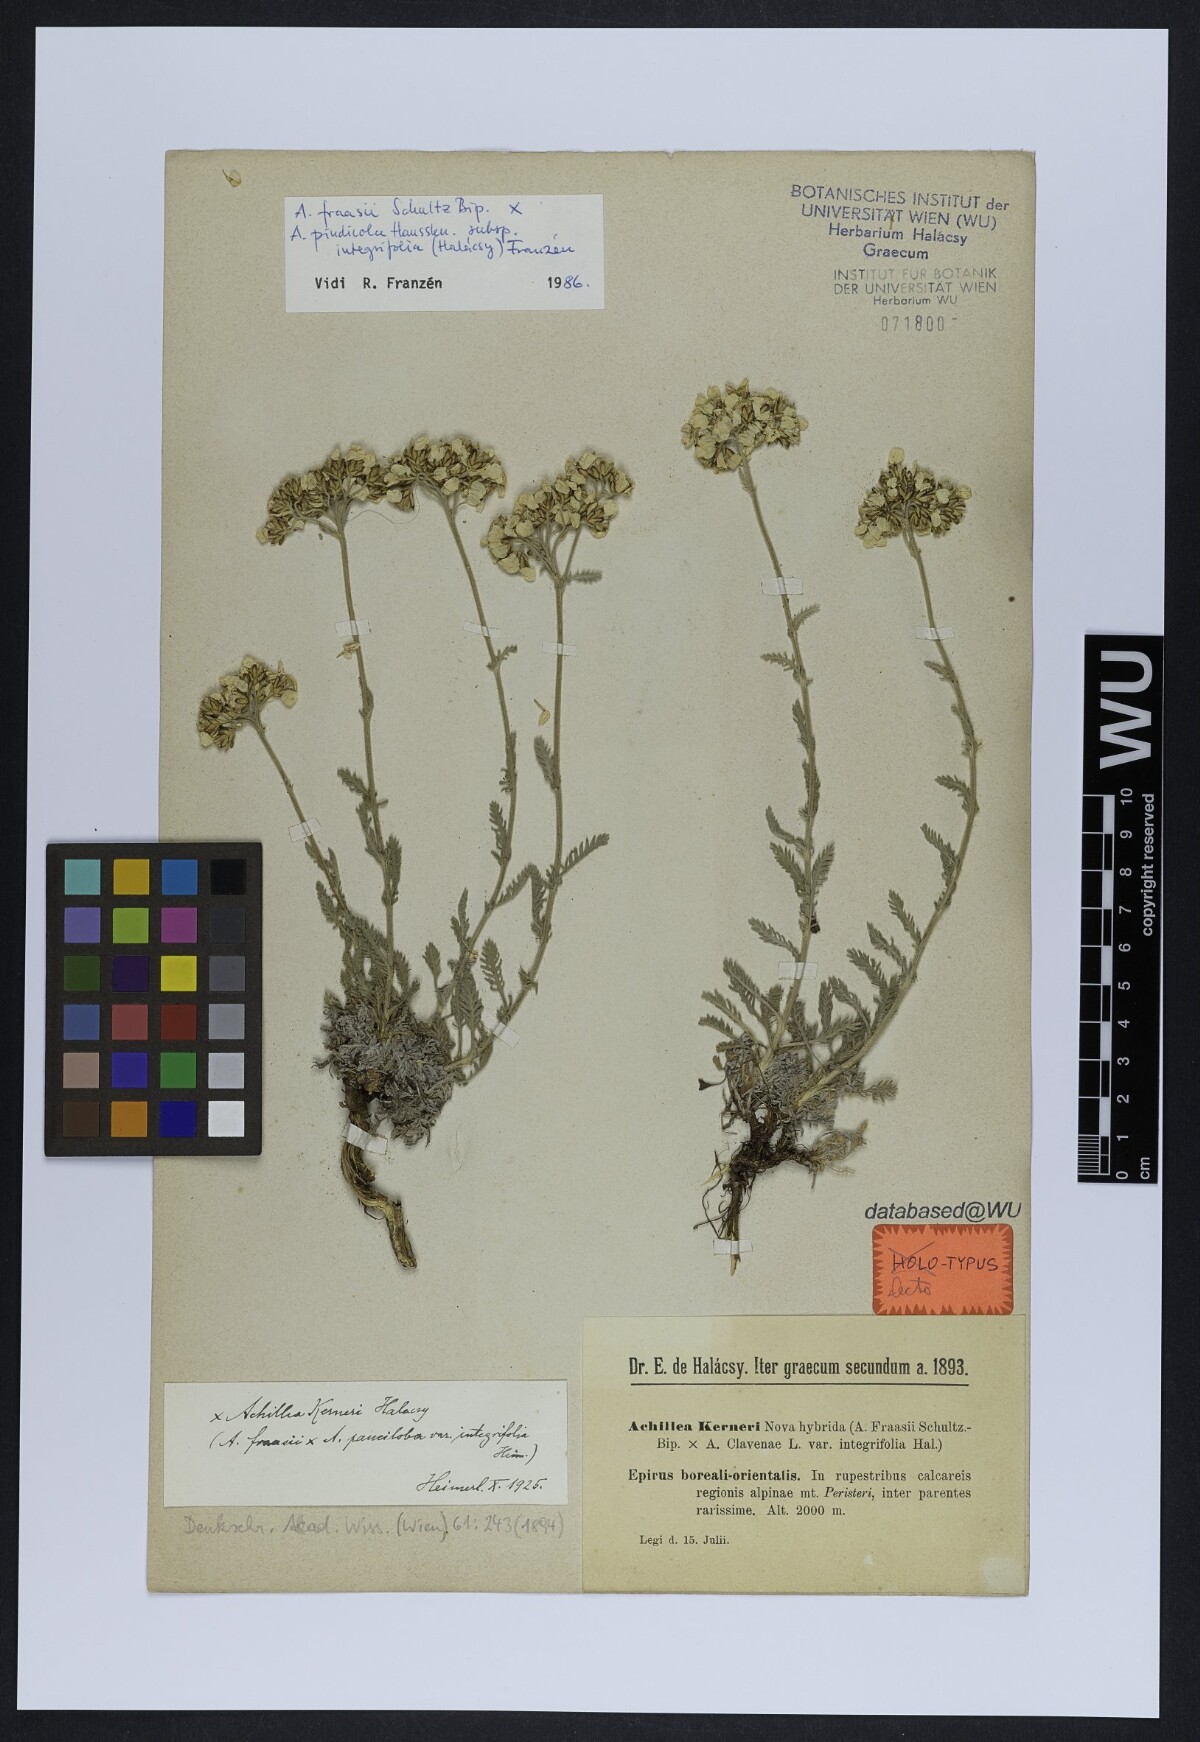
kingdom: Plantae
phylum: Tracheophyta
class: Magnoliopsida
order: Asterales
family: Asteraceae
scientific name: Asteraceae
